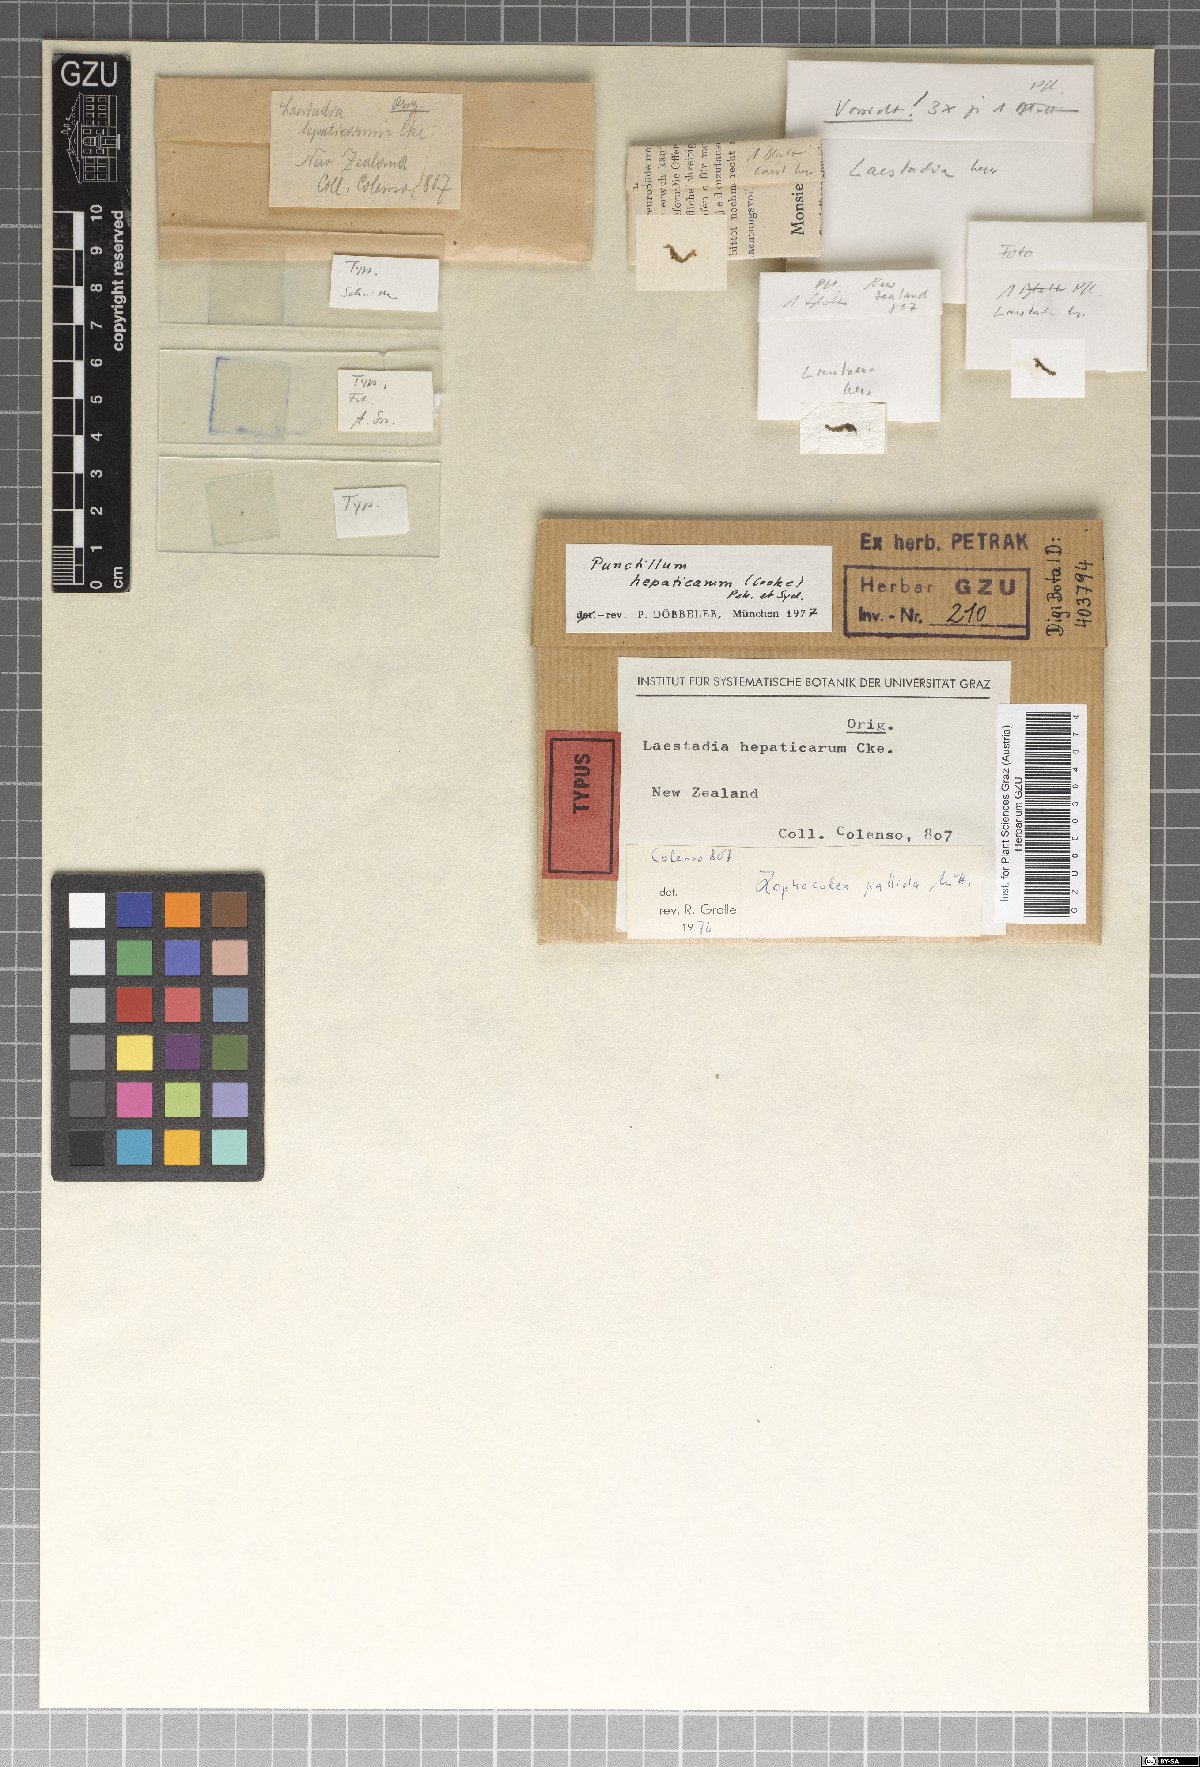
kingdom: Fungi
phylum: Ascomycota
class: Dothideomycetes
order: Dothideales
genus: Punctillum
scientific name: Punctillum hepaticarum
